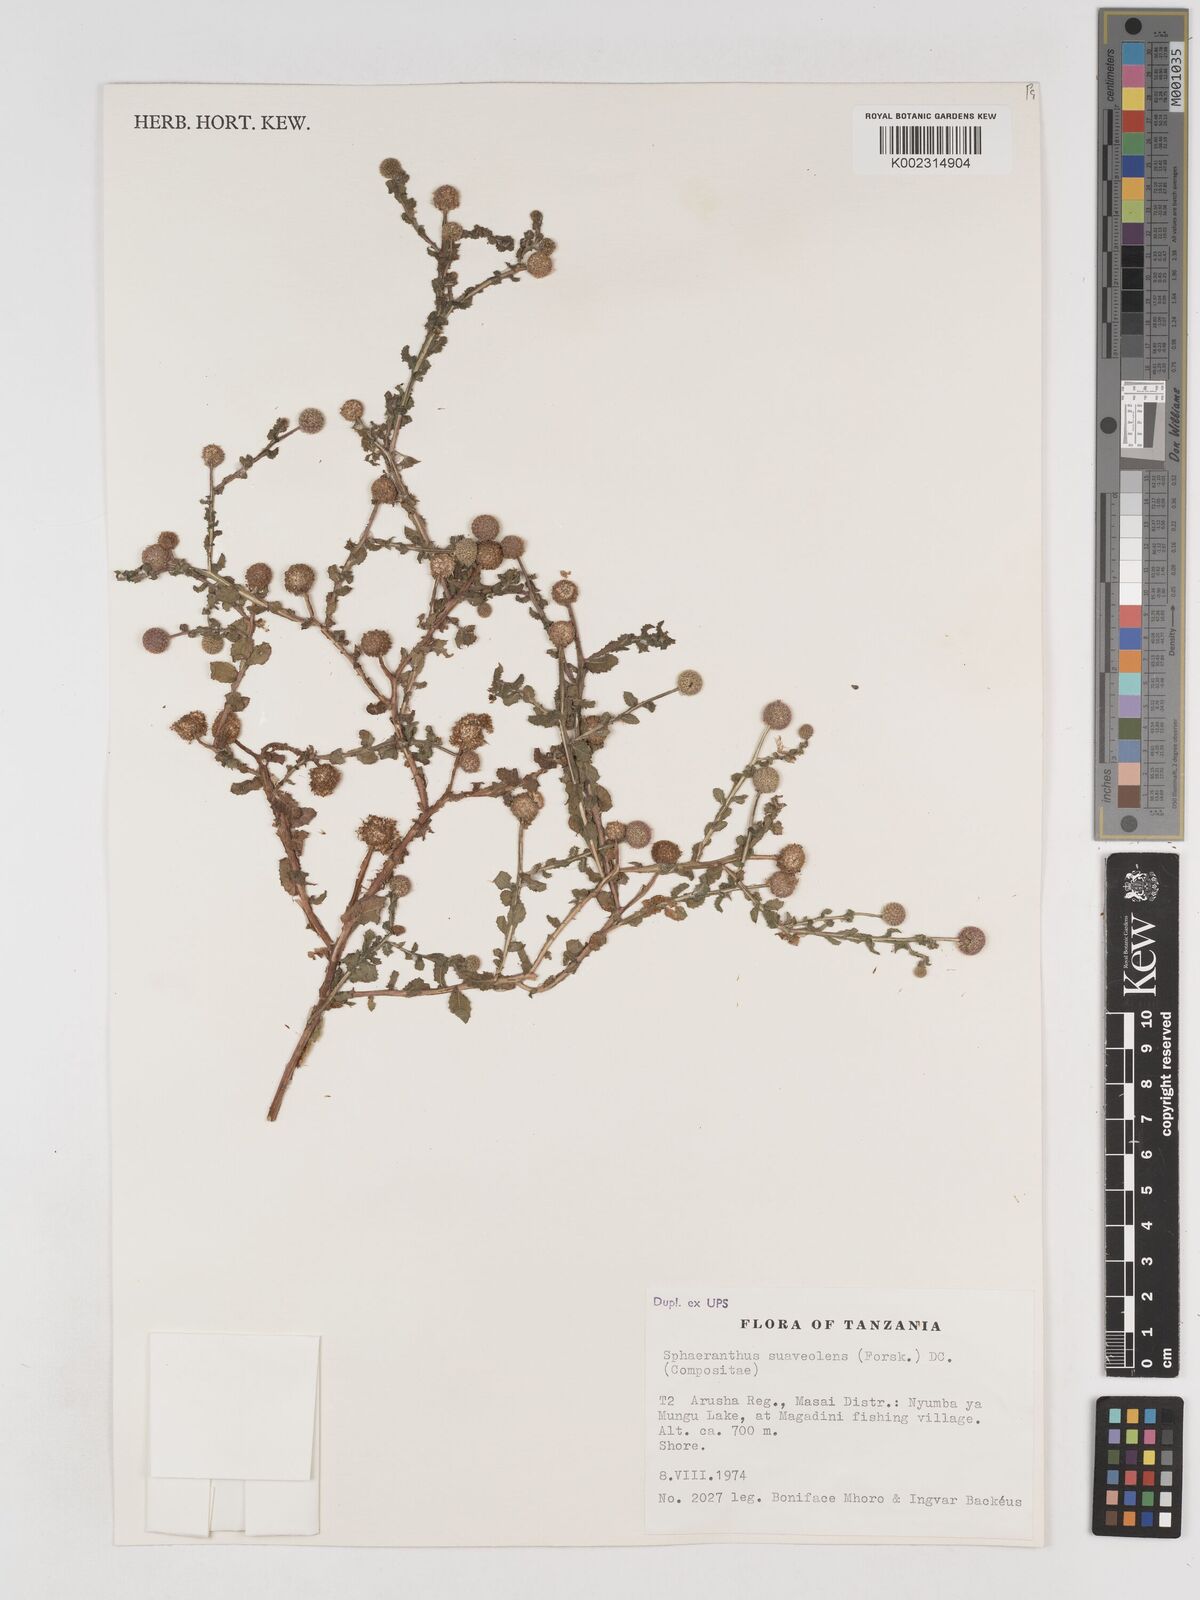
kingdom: Plantae
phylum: Tracheophyta
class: Magnoliopsida
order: Asterales
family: Asteraceae
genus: Sphaeranthus
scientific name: Sphaeranthus suaveolens
